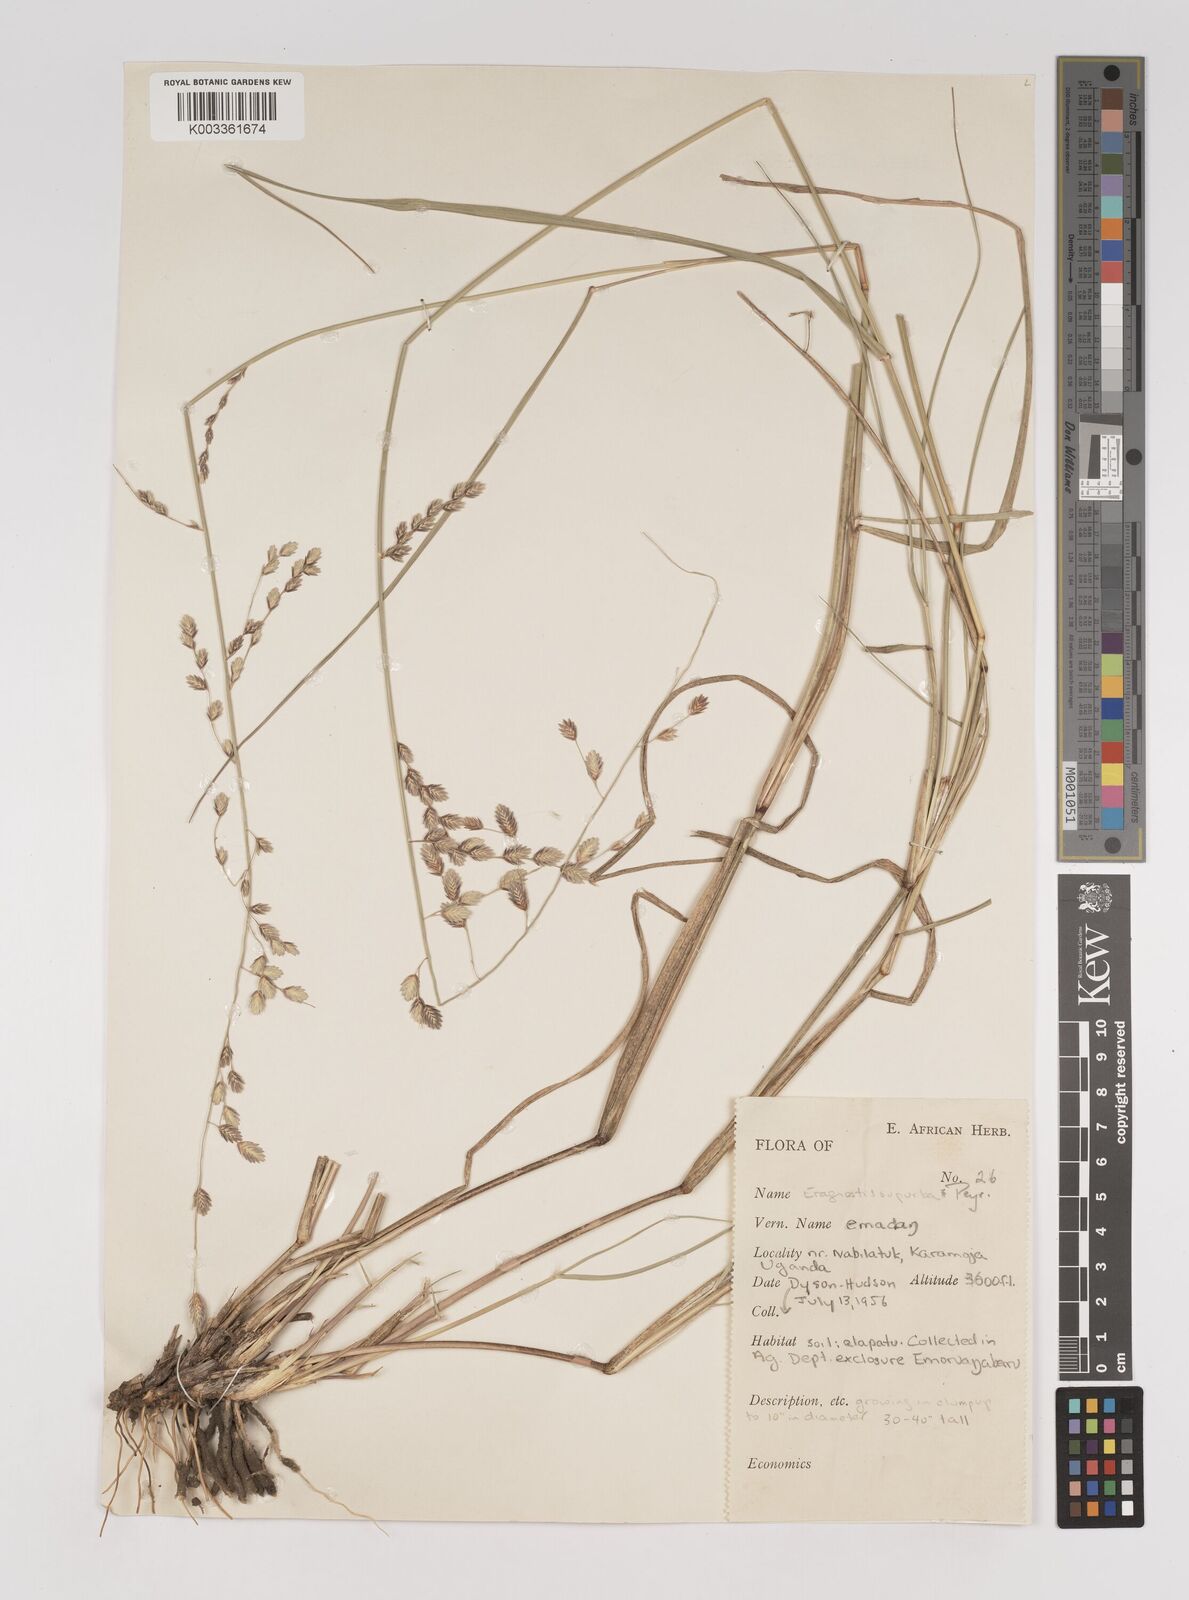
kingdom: Plantae
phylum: Tracheophyta
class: Liliopsida
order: Poales
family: Poaceae
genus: Eragrostis
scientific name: Eragrostis superba
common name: Wilman lovegrass
